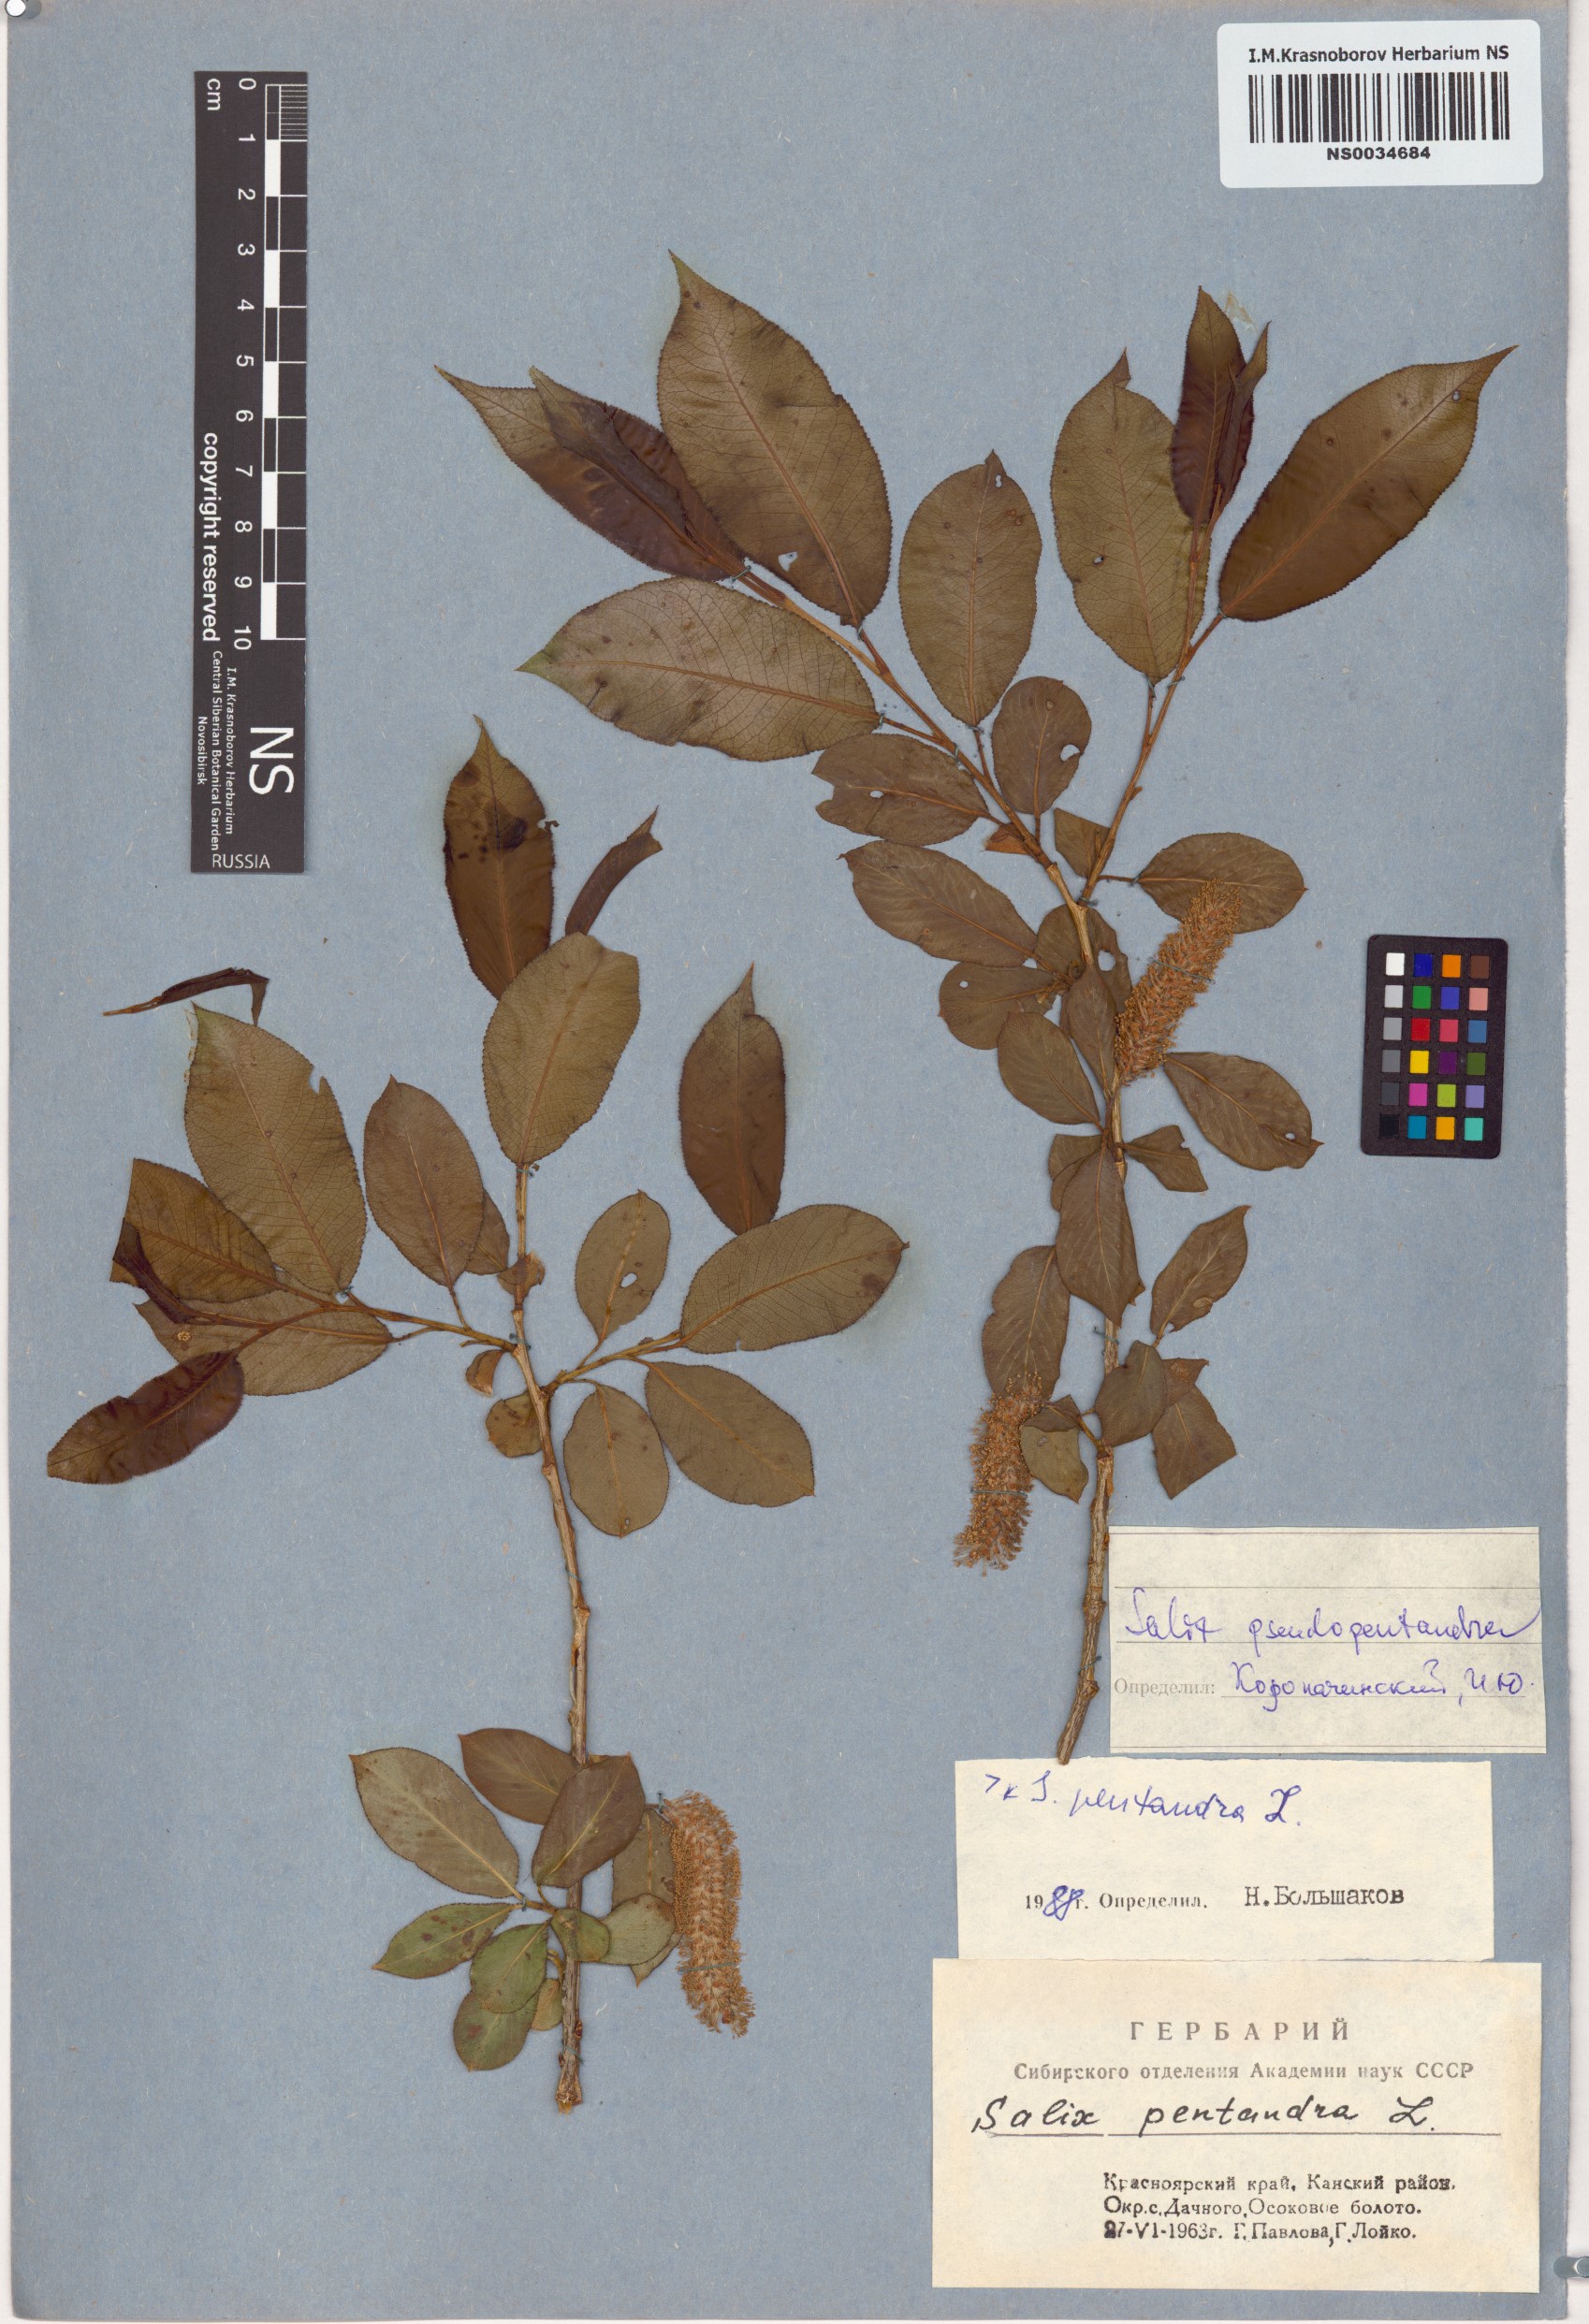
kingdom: Plantae
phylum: Tracheophyta
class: Magnoliopsida
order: Malpighiales
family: Salicaceae
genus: Salix
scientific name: Salix pentandra
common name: Bay willow
